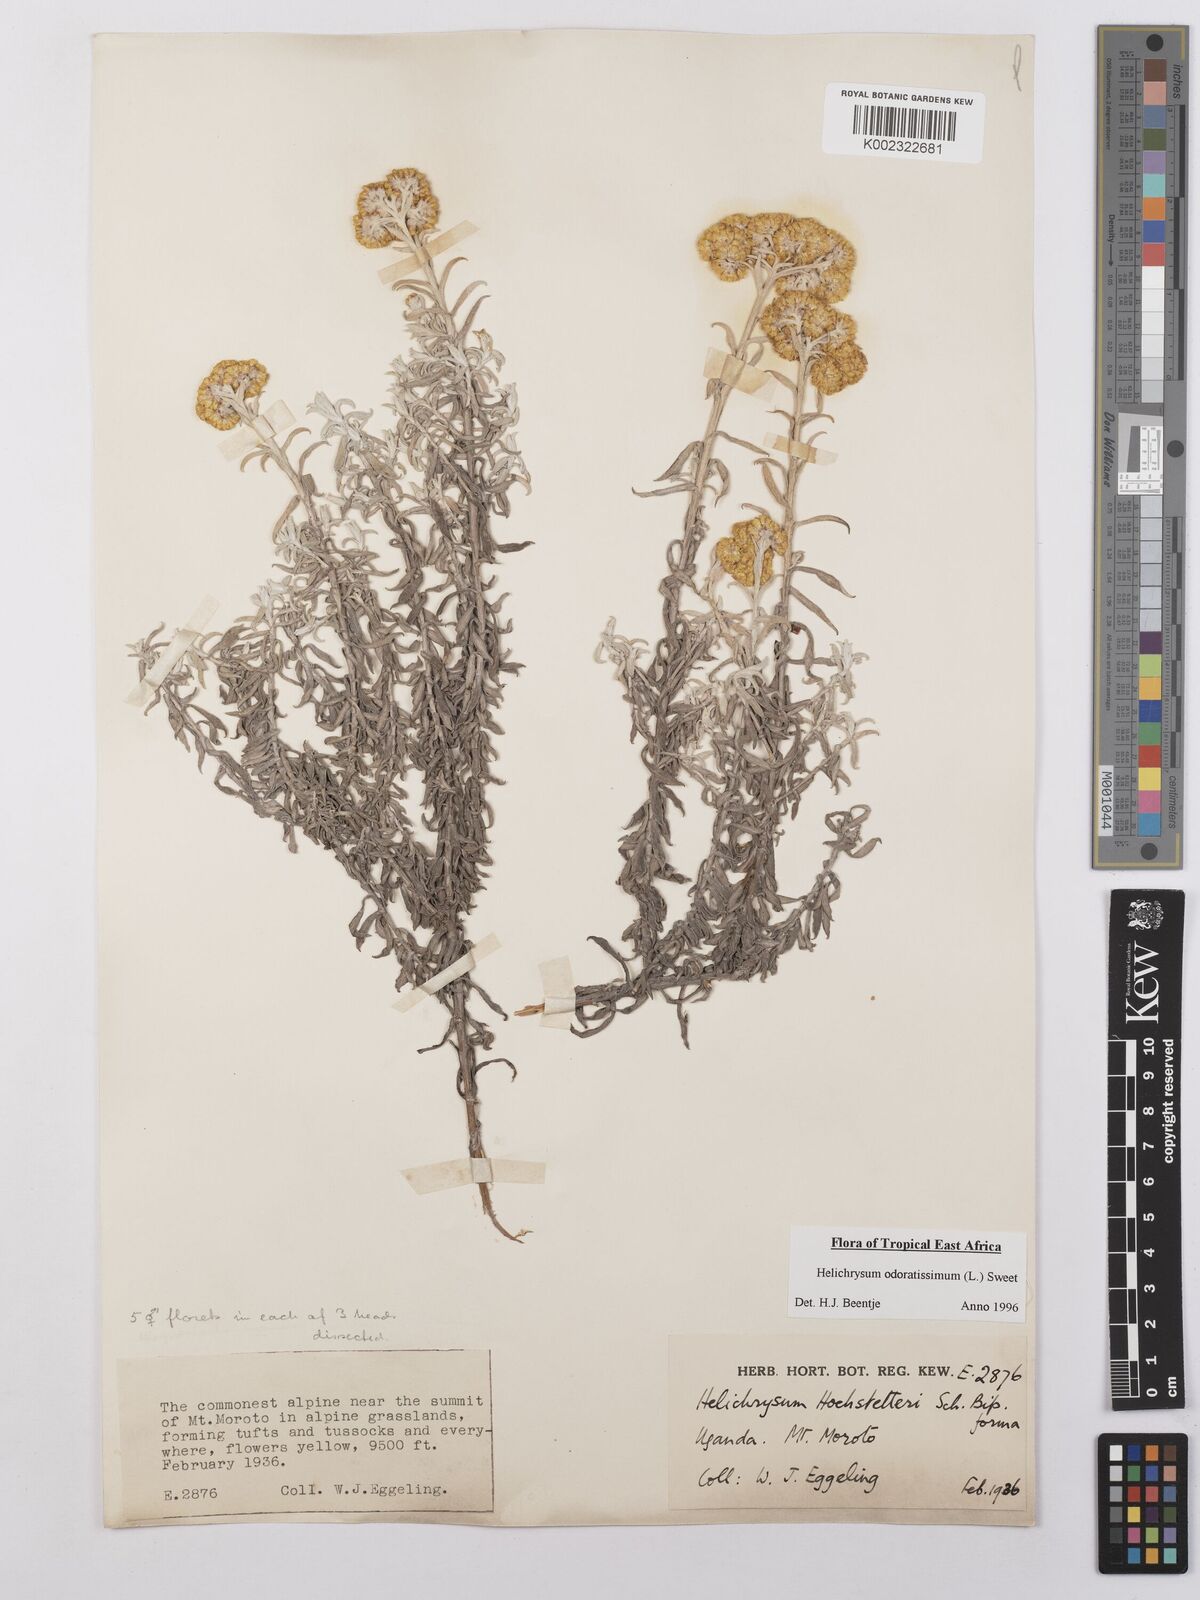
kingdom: Plantae
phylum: Tracheophyta
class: Magnoliopsida
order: Asterales
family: Asteraceae
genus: Helichrysum
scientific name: Helichrysum odoratissimum
